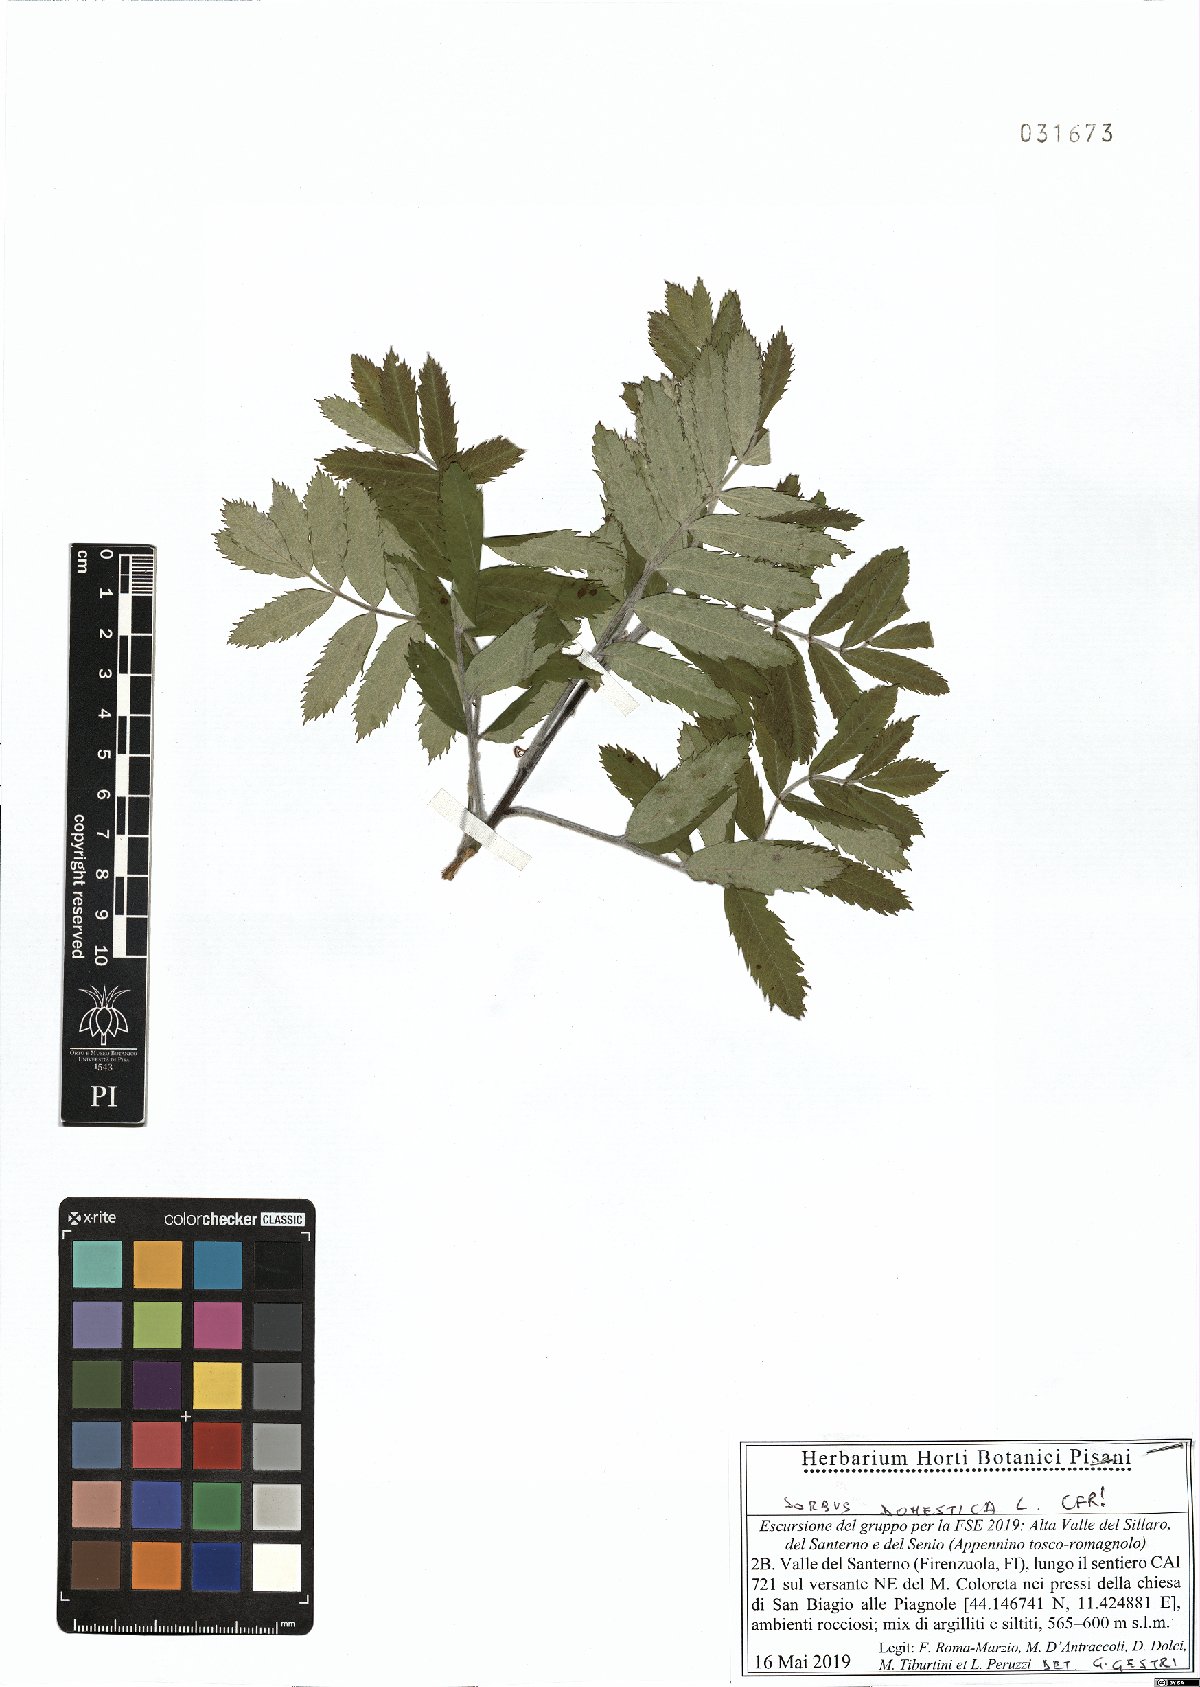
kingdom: Plantae
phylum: Tracheophyta
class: Magnoliopsida
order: Rosales
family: Rosaceae
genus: Cormus
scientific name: Cormus domestica
